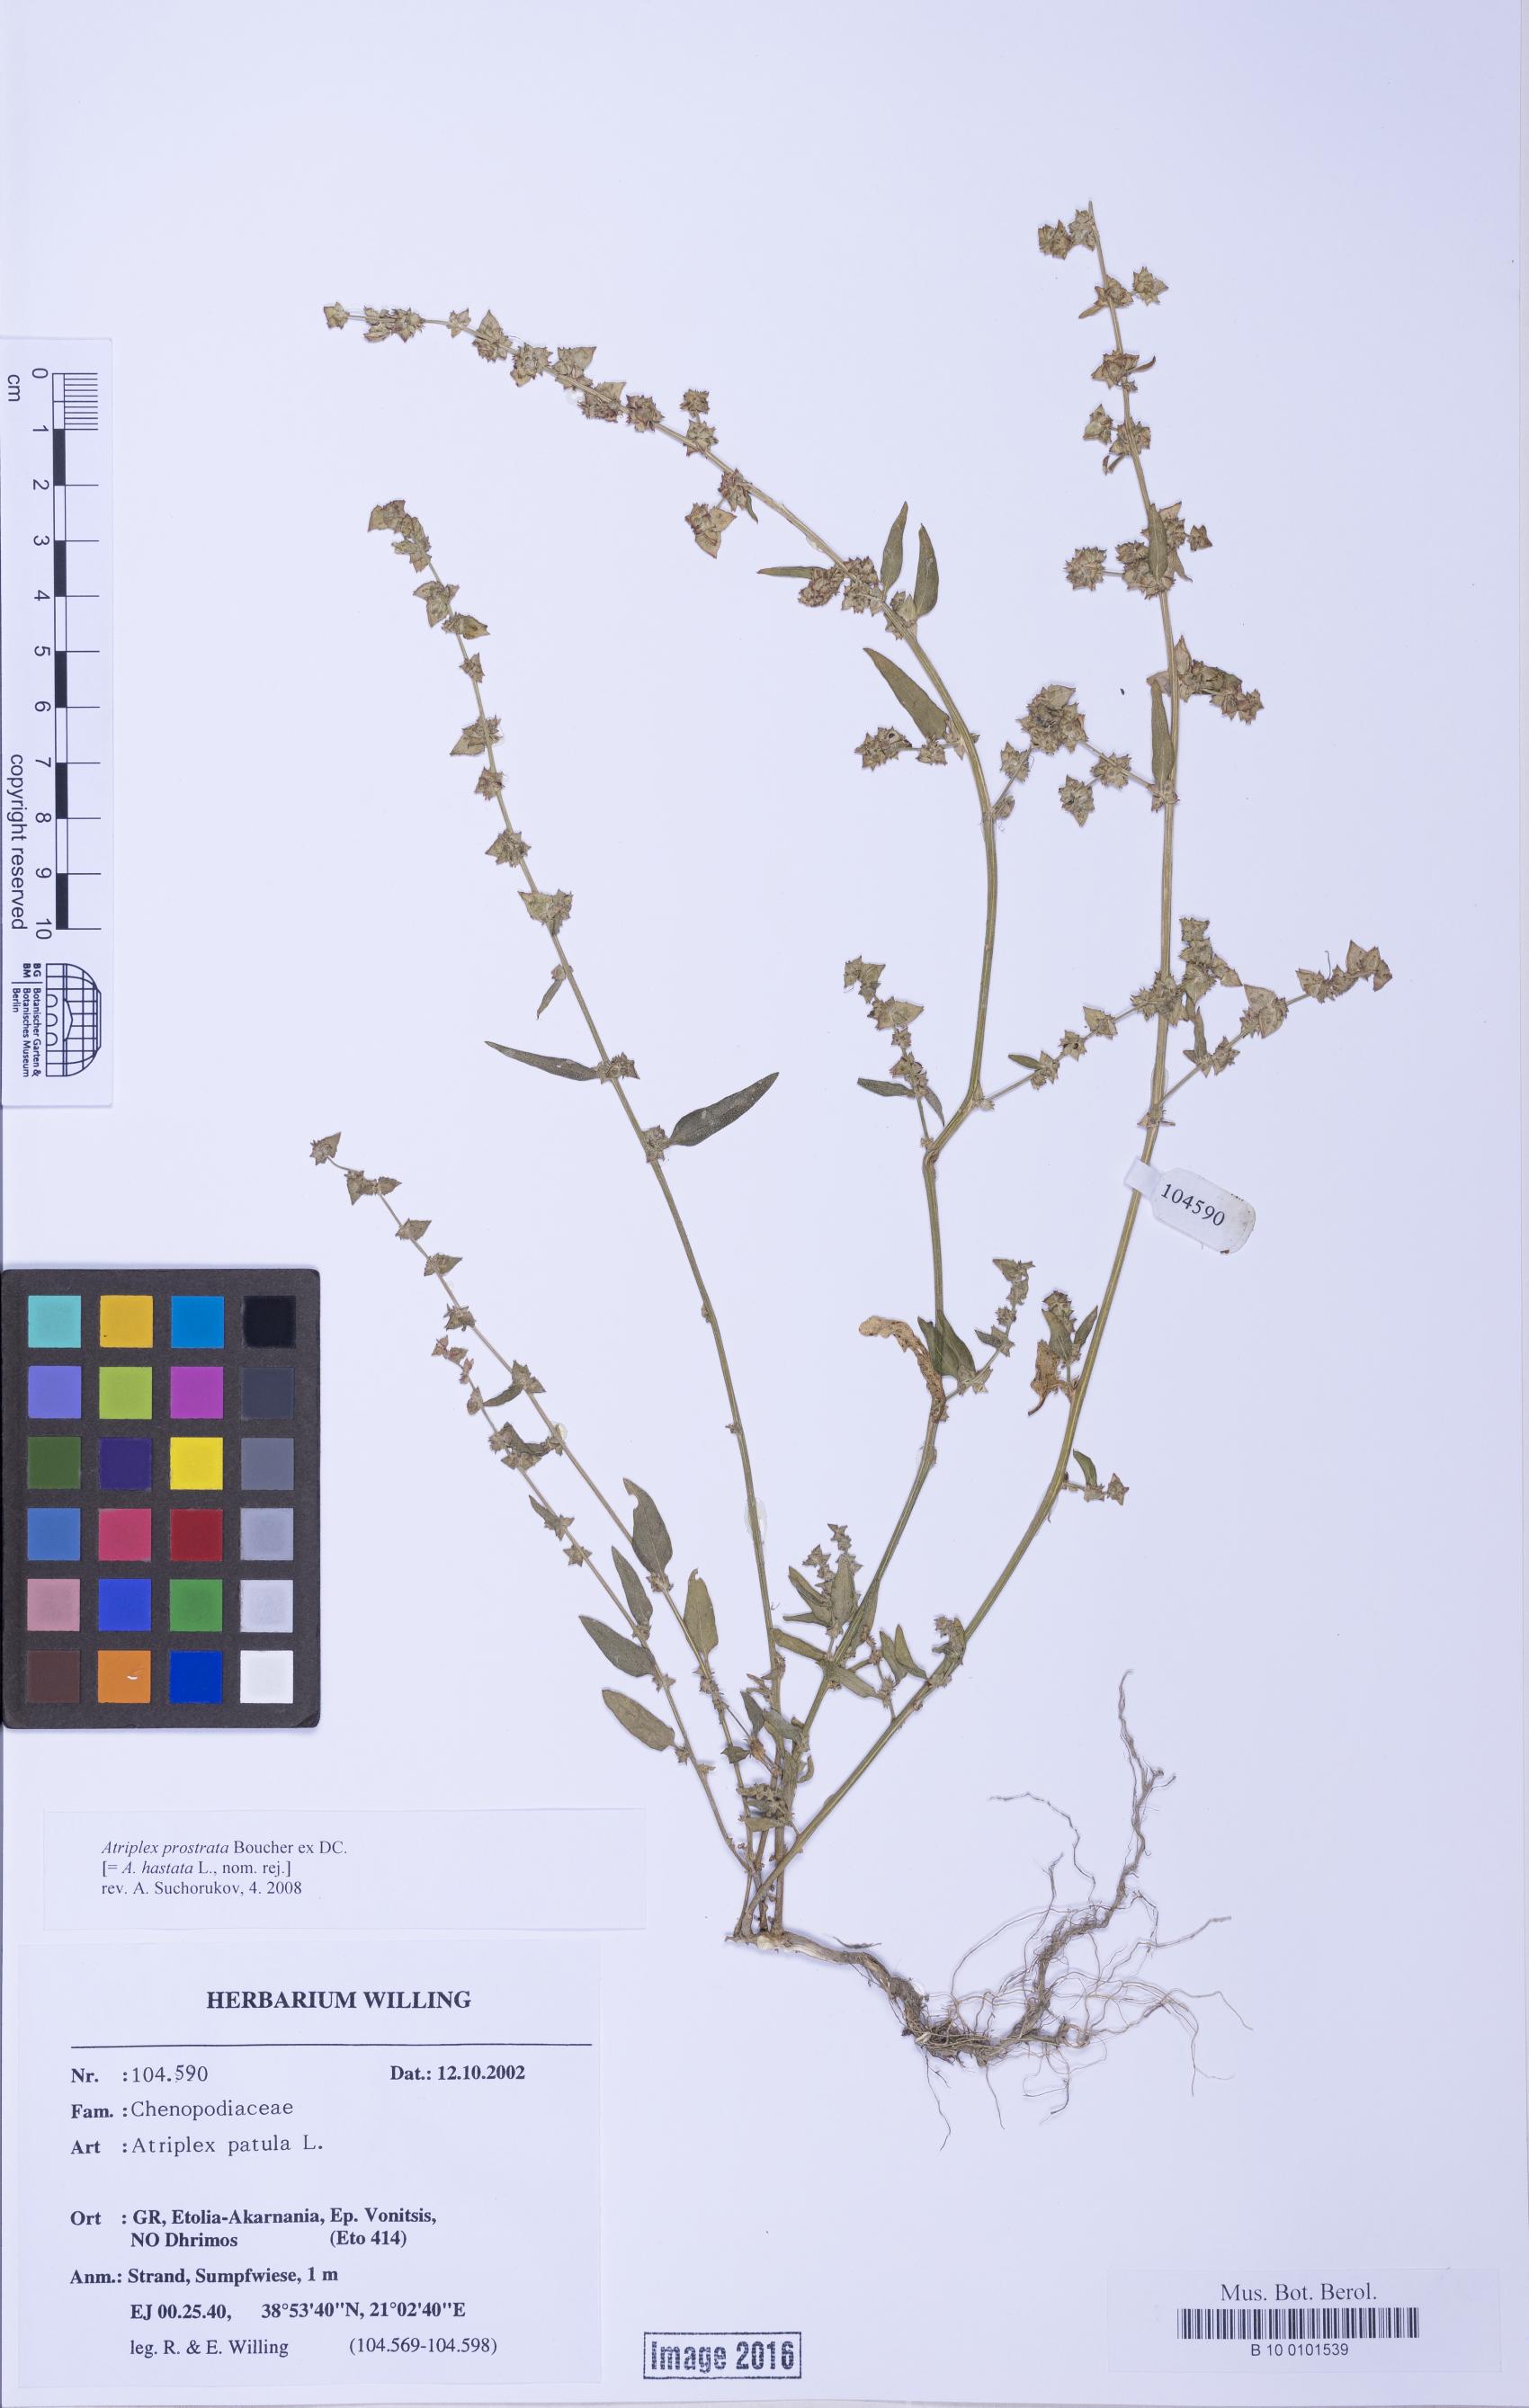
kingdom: Plantae
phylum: Tracheophyta
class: Magnoliopsida
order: Caryophyllales
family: Amaranthaceae
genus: Atriplex
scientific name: Atriplex prostrata
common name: Spear-leaved orache
